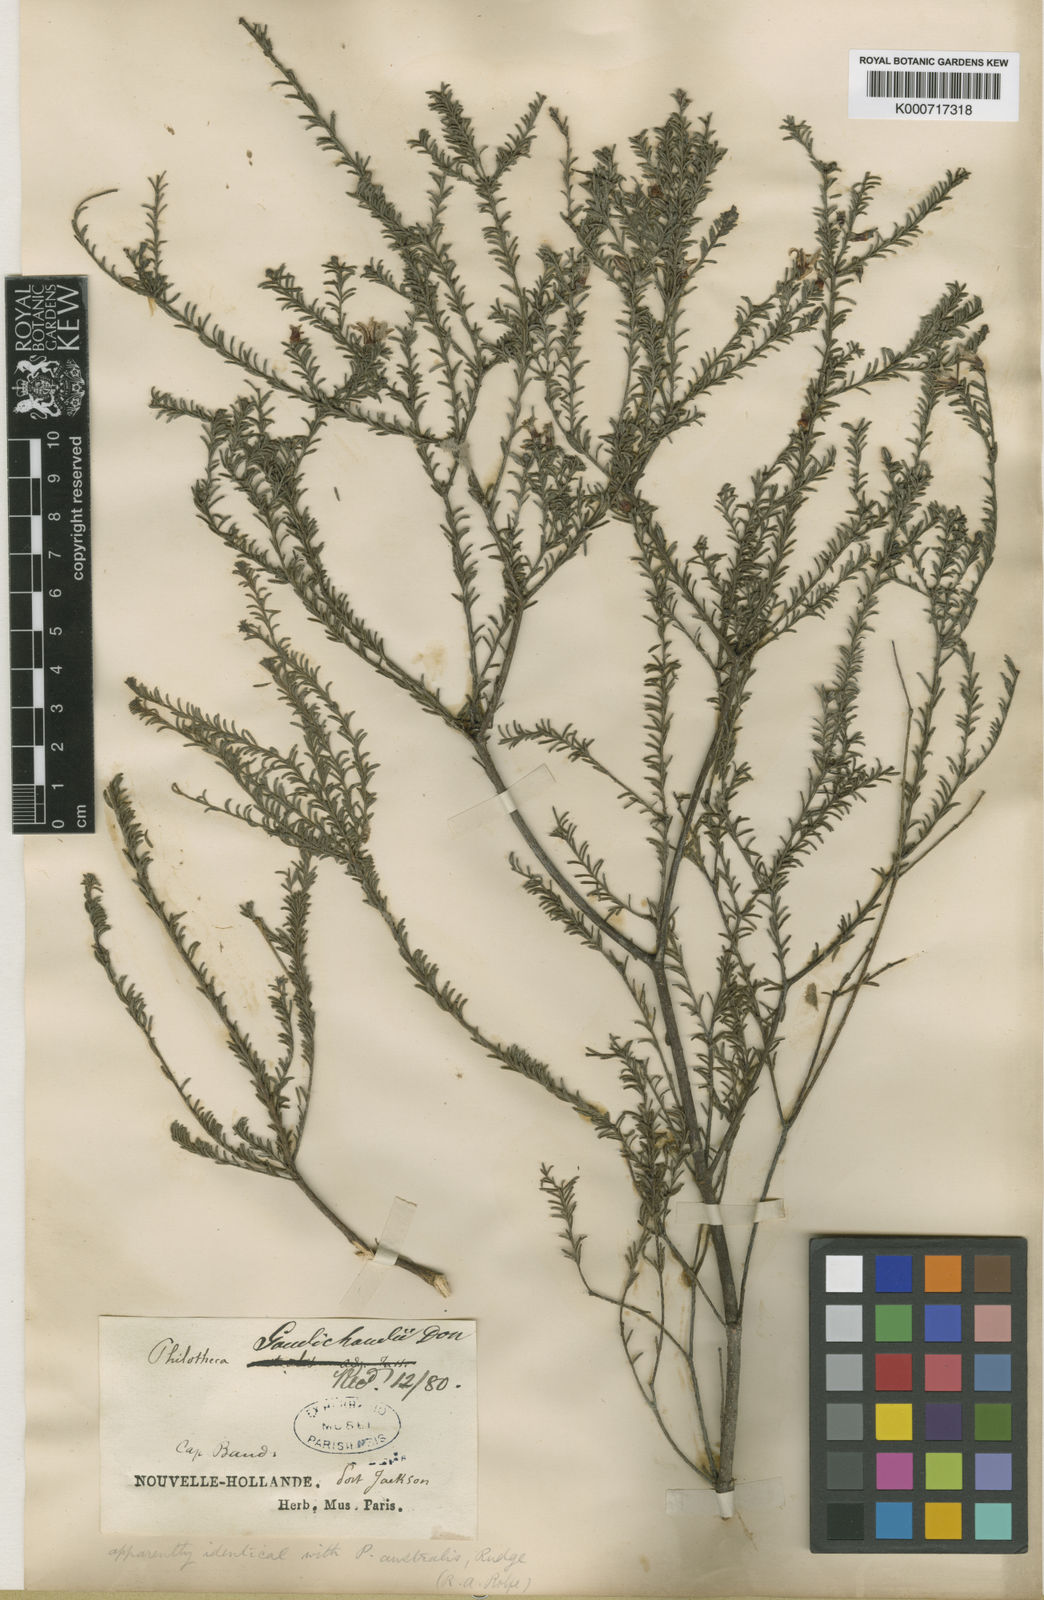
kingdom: Plantae
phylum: Tracheophyta
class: Magnoliopsida
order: Sapindales
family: Rutaceae
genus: Drummondita
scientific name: Drummondita calida
